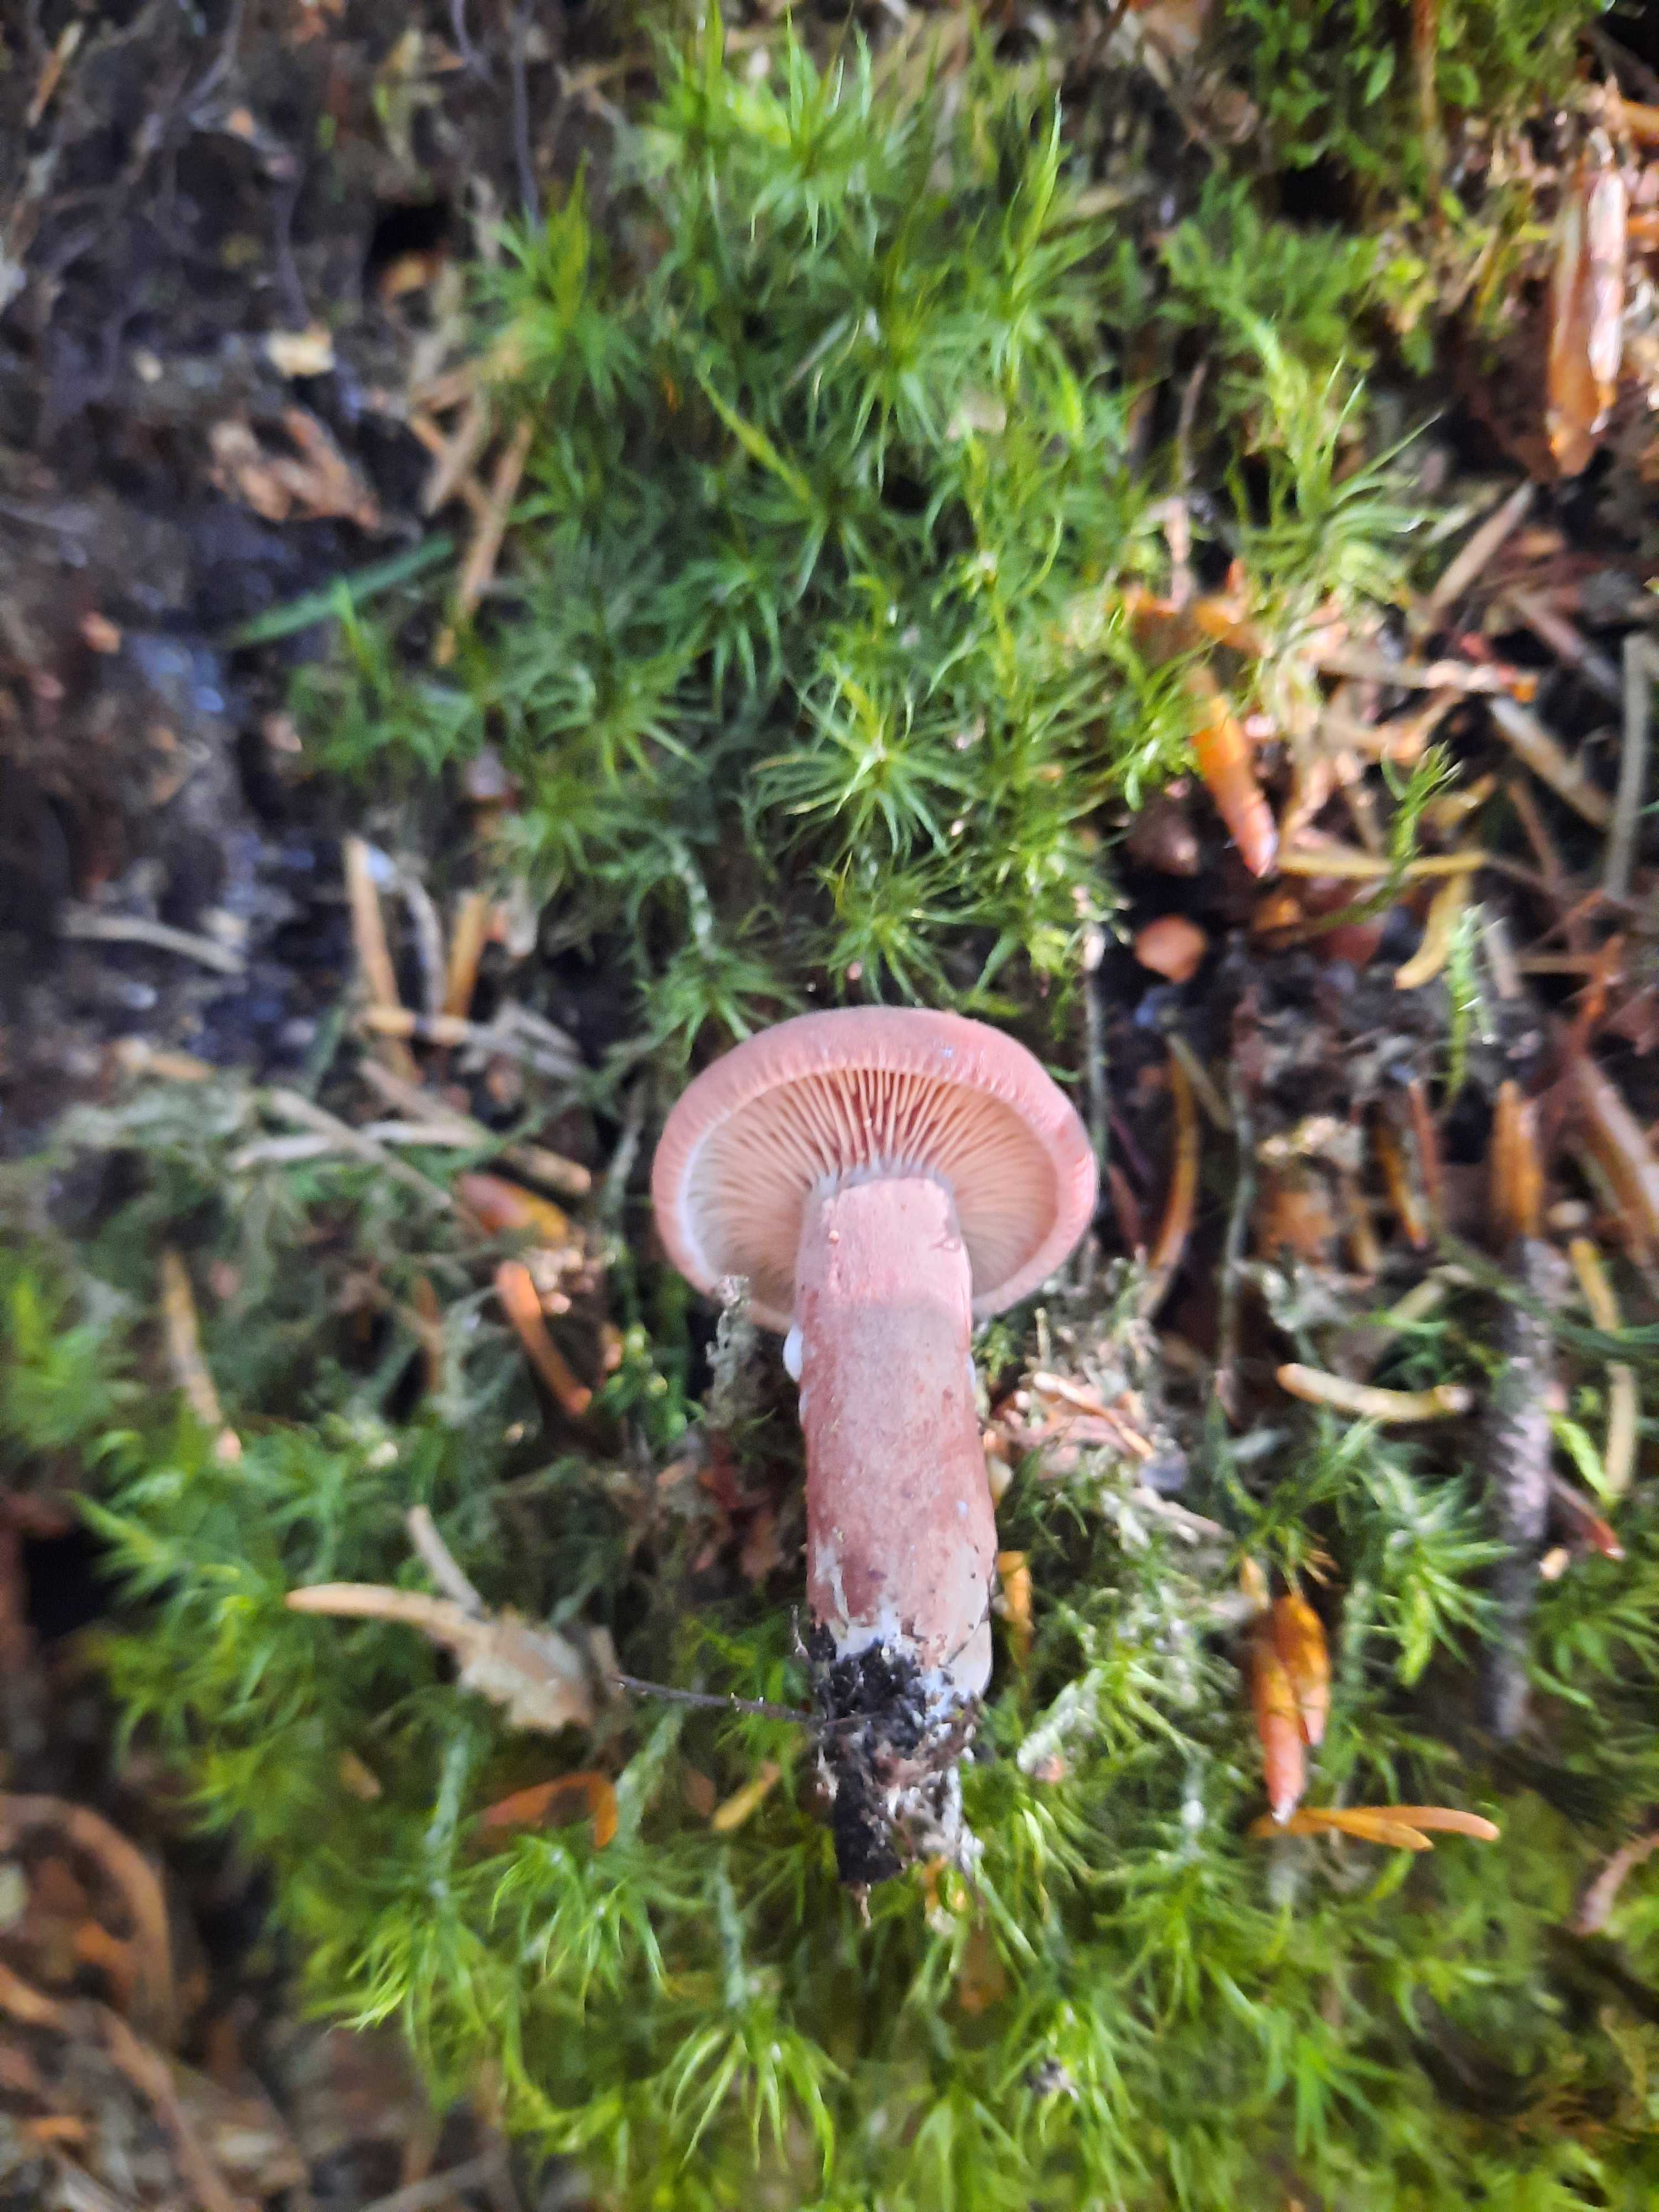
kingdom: Fungi
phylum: Basidiomycota
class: Agaricomycetes
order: Russulales
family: Russulaceae
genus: Lactarius
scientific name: Lactarius camphoratus
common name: kamfer-mælkehat
